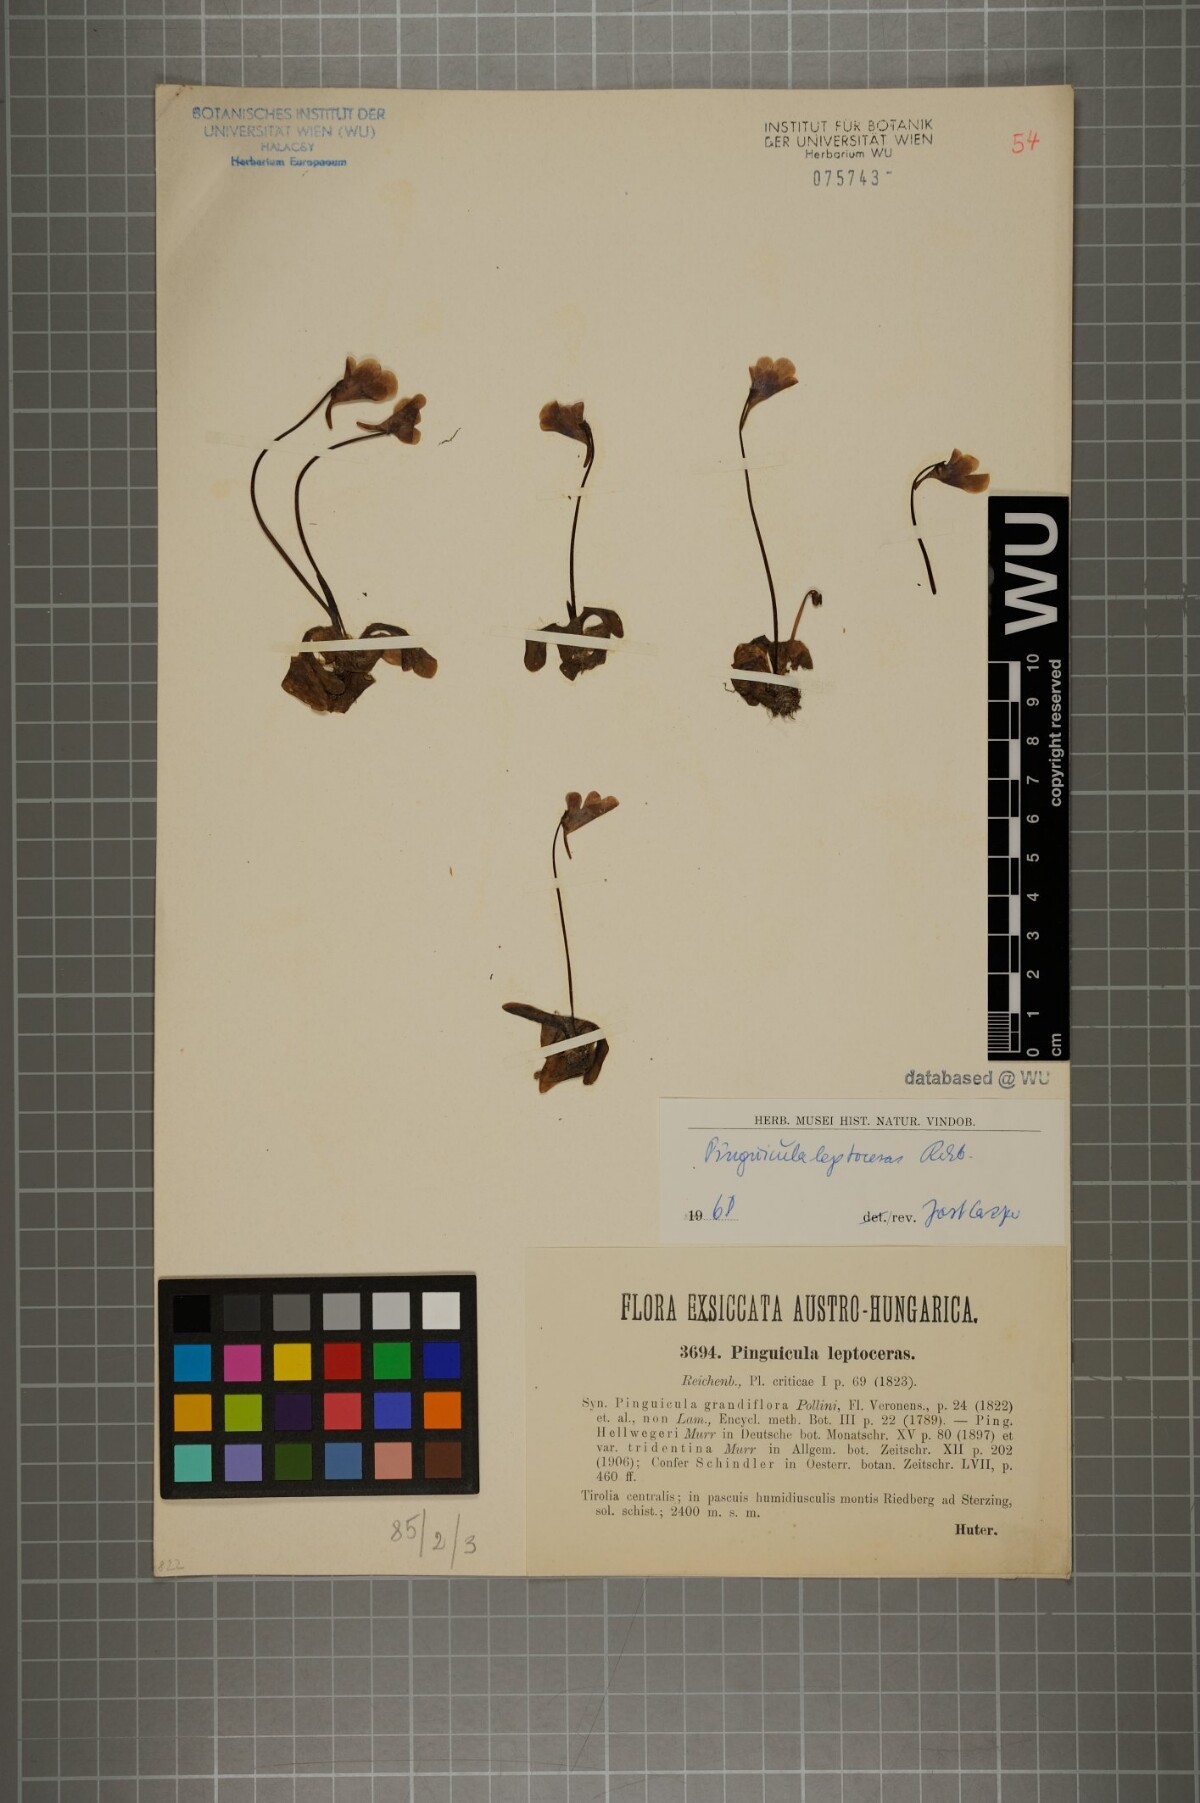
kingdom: Plantae
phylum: Tracheophyta
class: Magnoliopsida
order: Lamiales
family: Lentibulariaceae
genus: Pinguicula
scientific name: Pinguicula leptoceras
